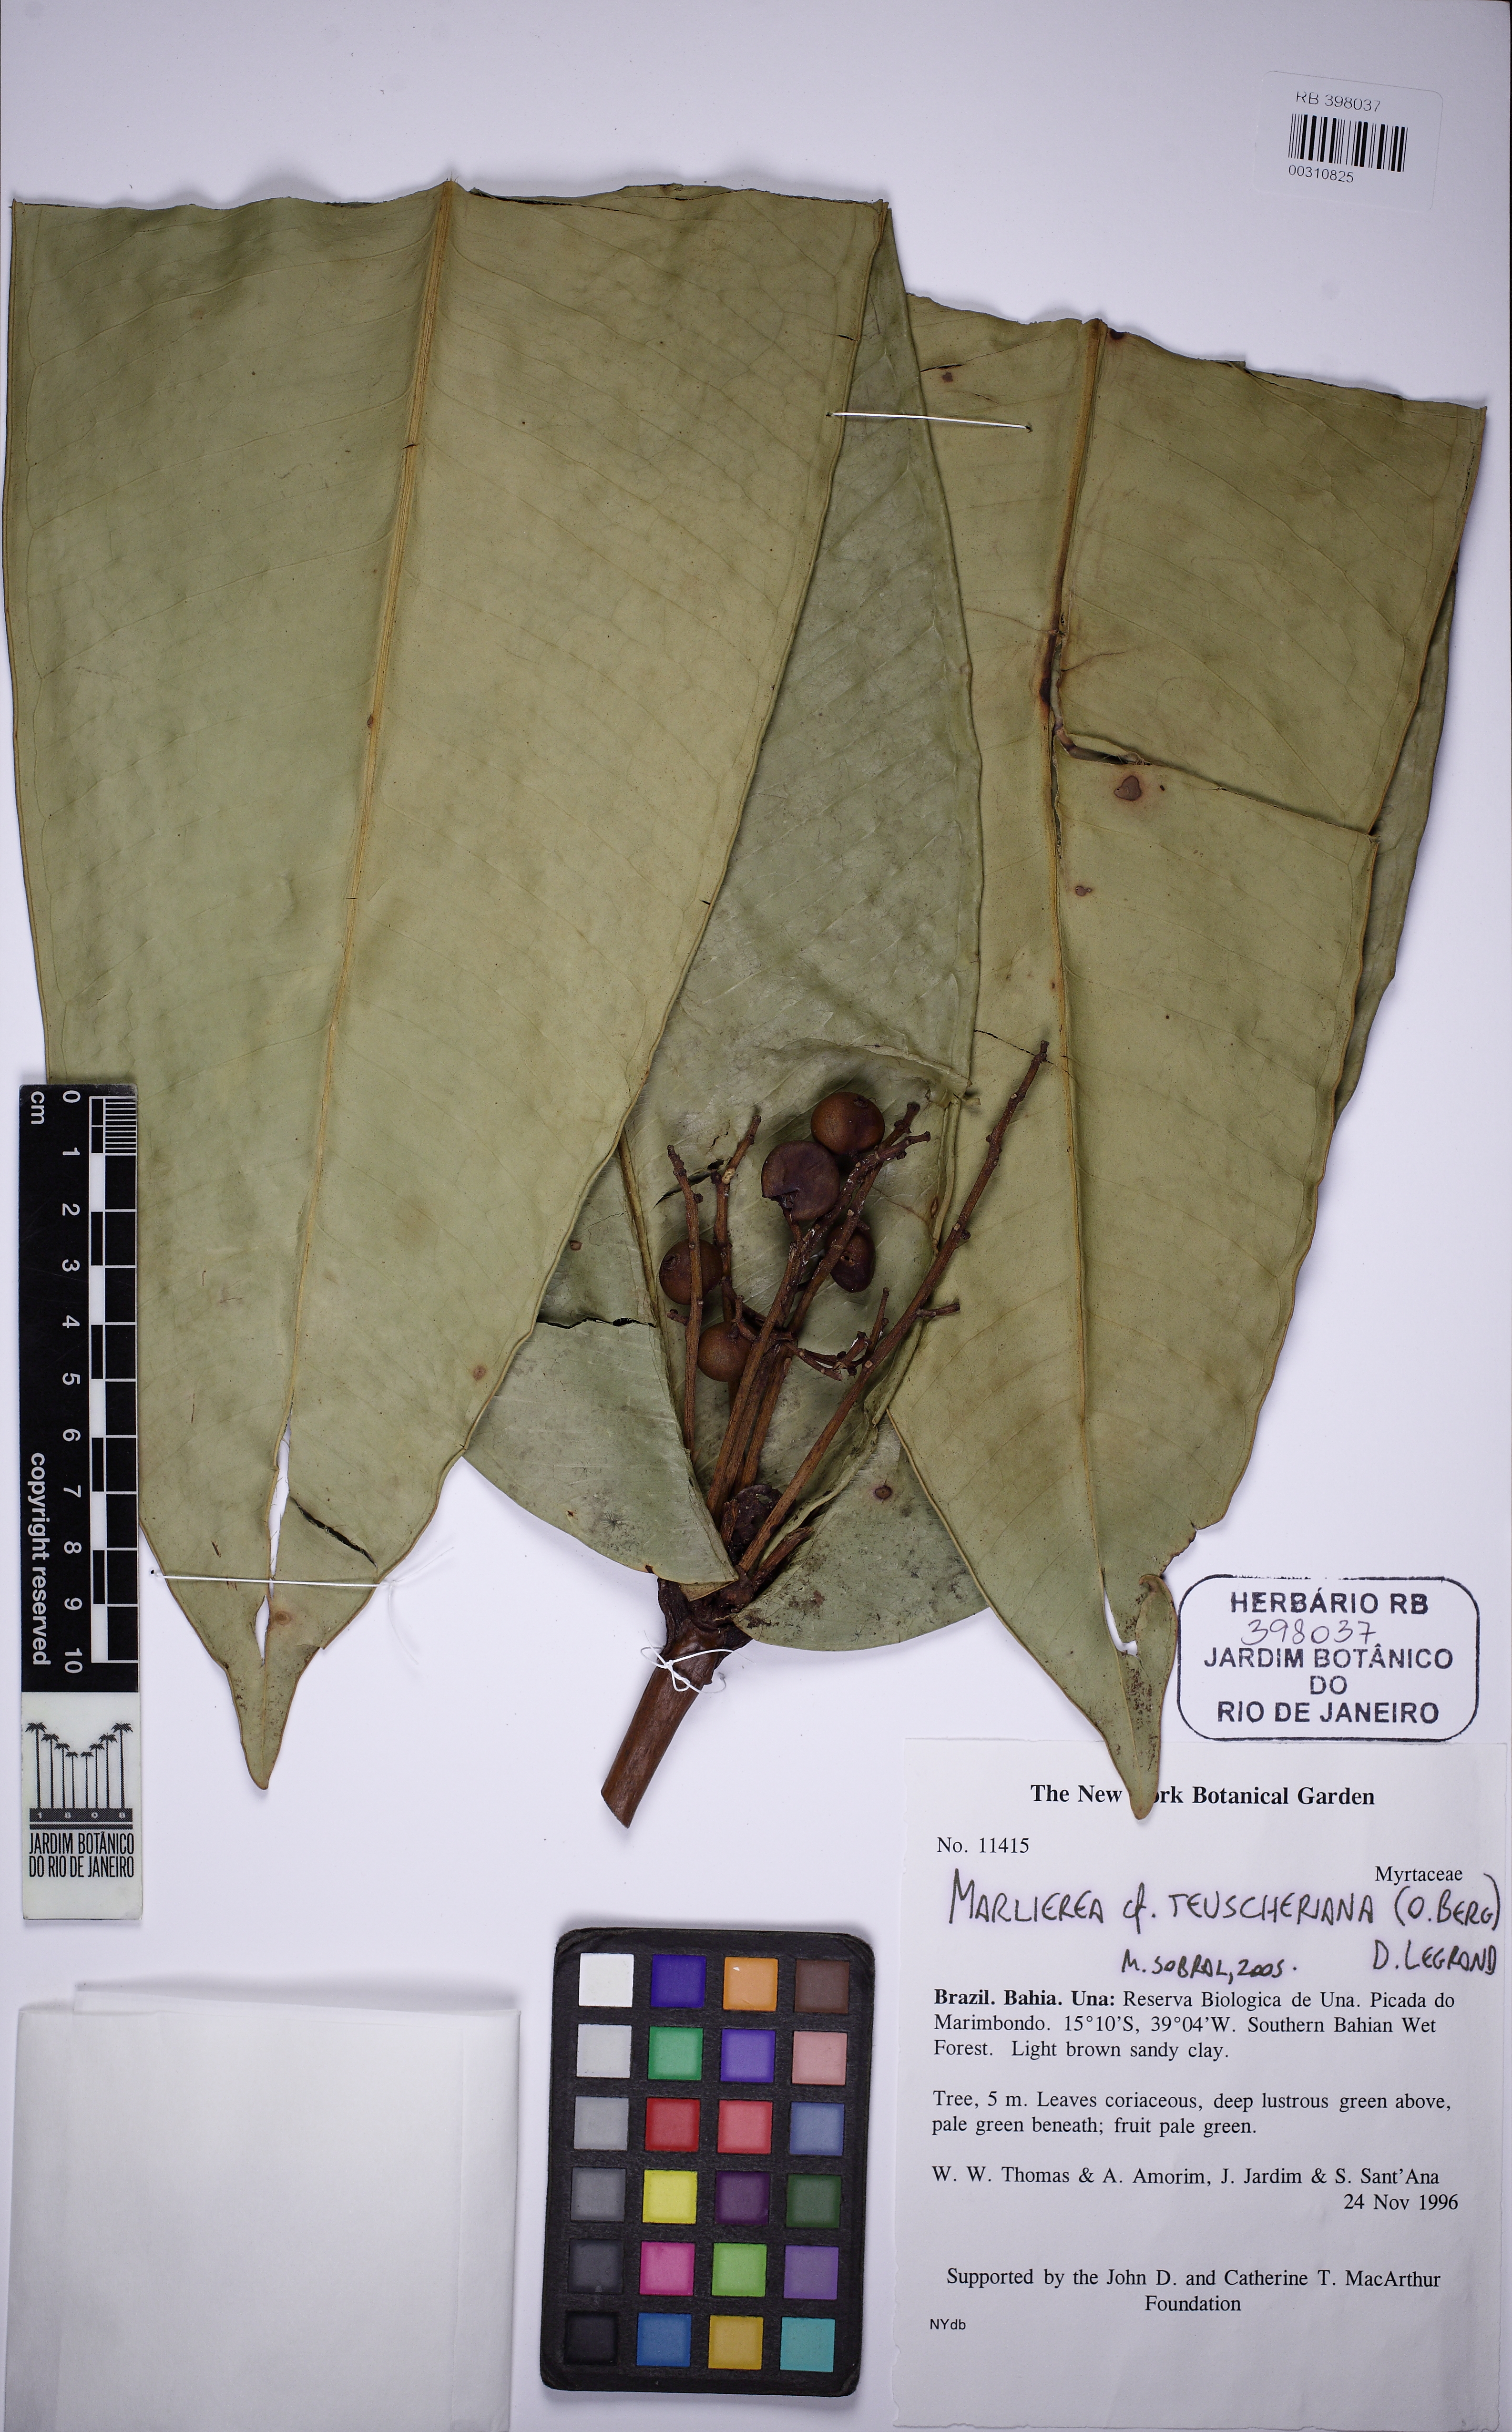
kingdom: Plantae
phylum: Tracheophyta
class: Magnoliopsida
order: Myrtales
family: Myrtaceae
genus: Myrcia
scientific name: Myrcia amplifolia
